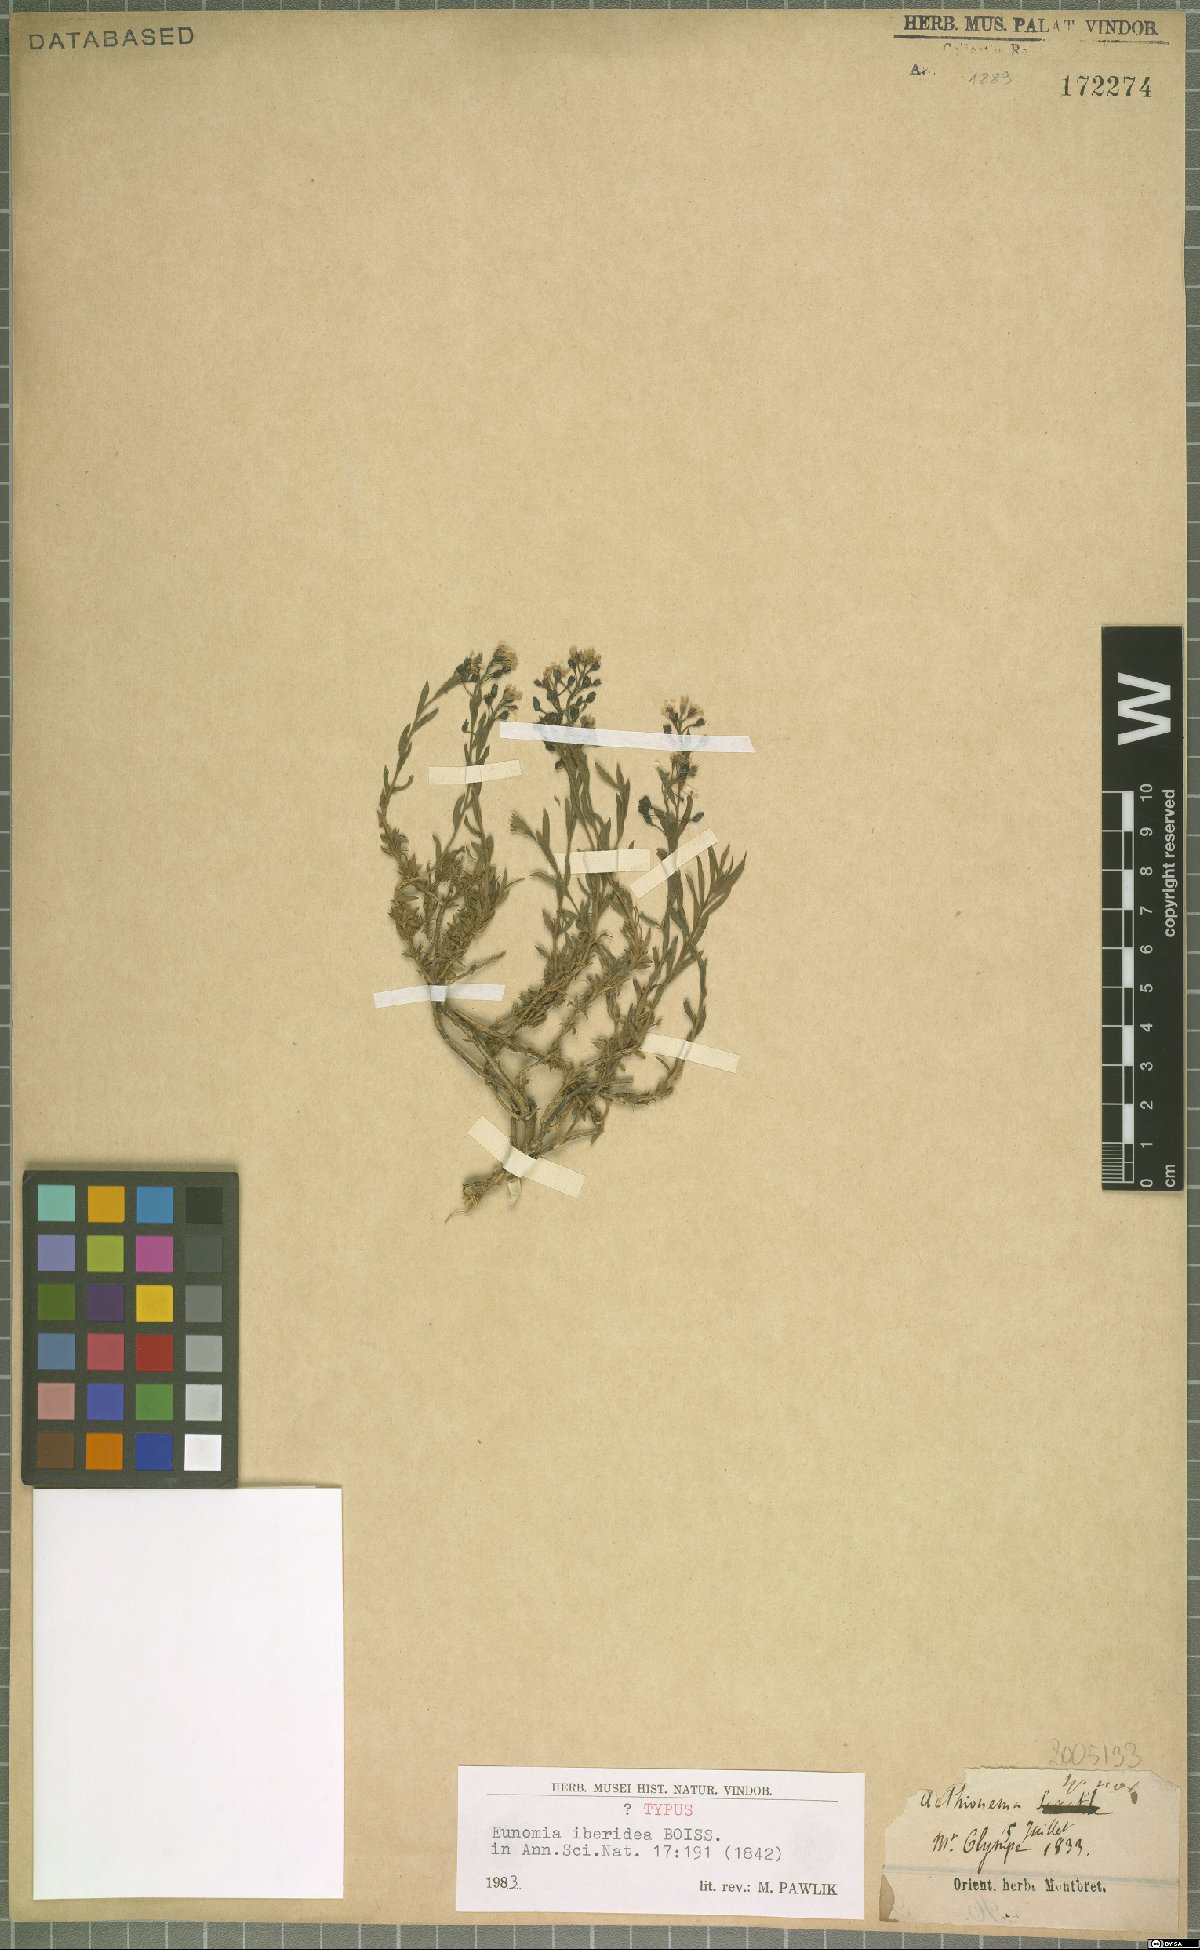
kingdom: Plantae
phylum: Tracheophyta
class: Magnoliopsida
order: Brassicales
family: Brassicaceae
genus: Noccaea
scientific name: Noccaea iberidea
